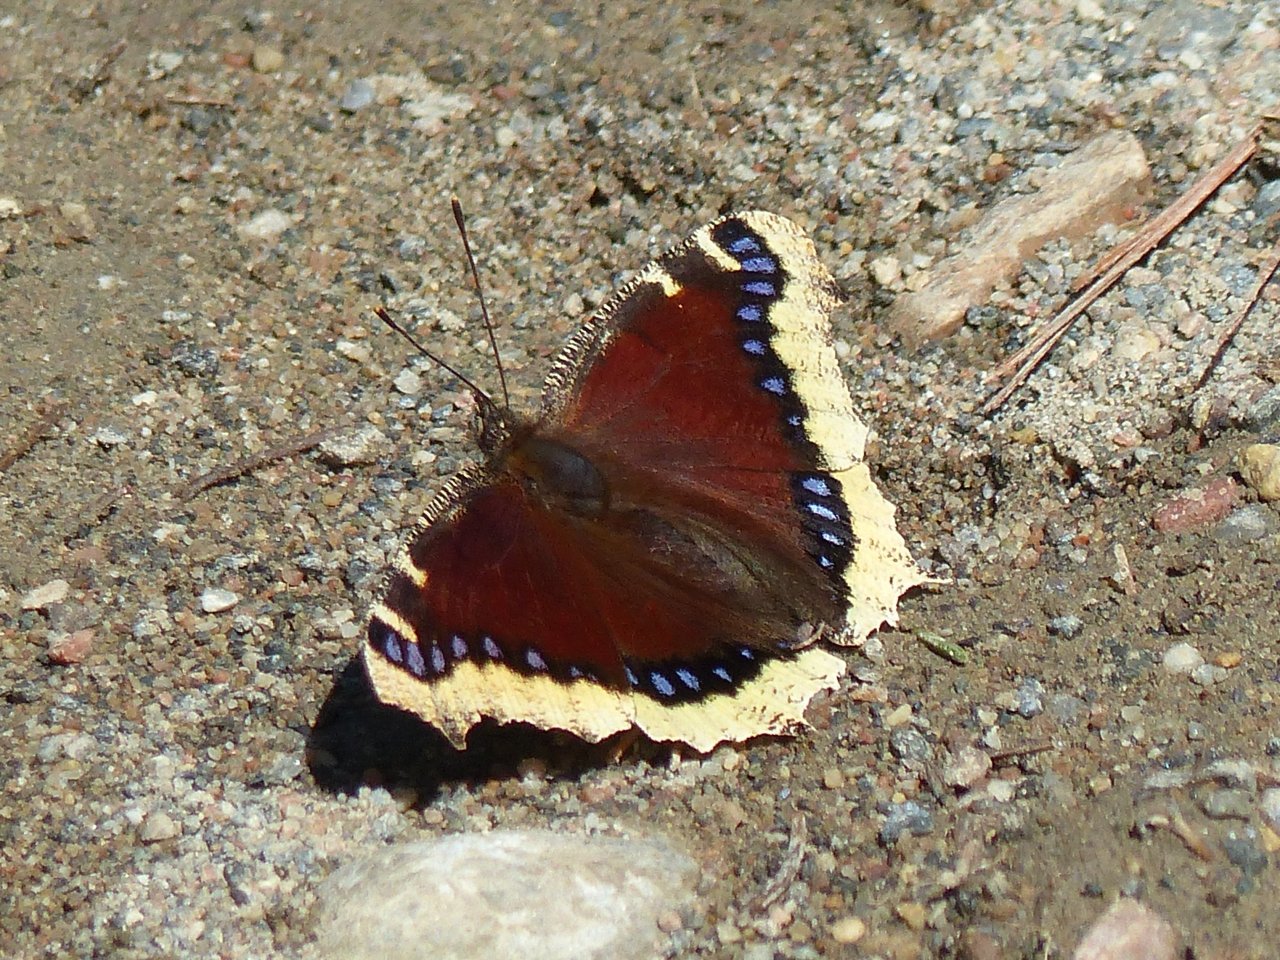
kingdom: Animalia
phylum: Arthropoda
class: Insecta
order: Lepidoptera
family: Nymphalidae
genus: Nymphalis
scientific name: Nymphalis antiopa
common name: Mourning Cloak
